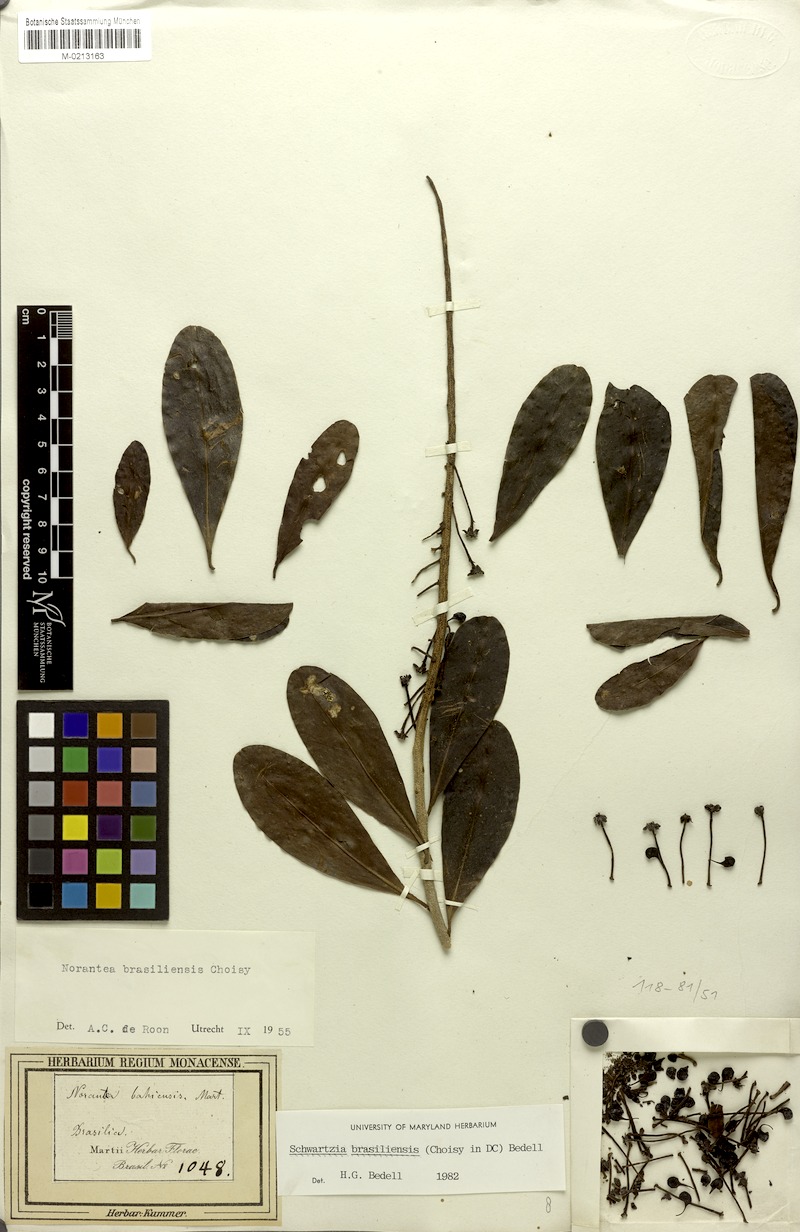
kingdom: Plantae
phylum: Tracheophyta
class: Magnoliopsida
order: Ericales
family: Marcgraviaceae
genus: Schwartzia
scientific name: Schwartzia brasiliensis
